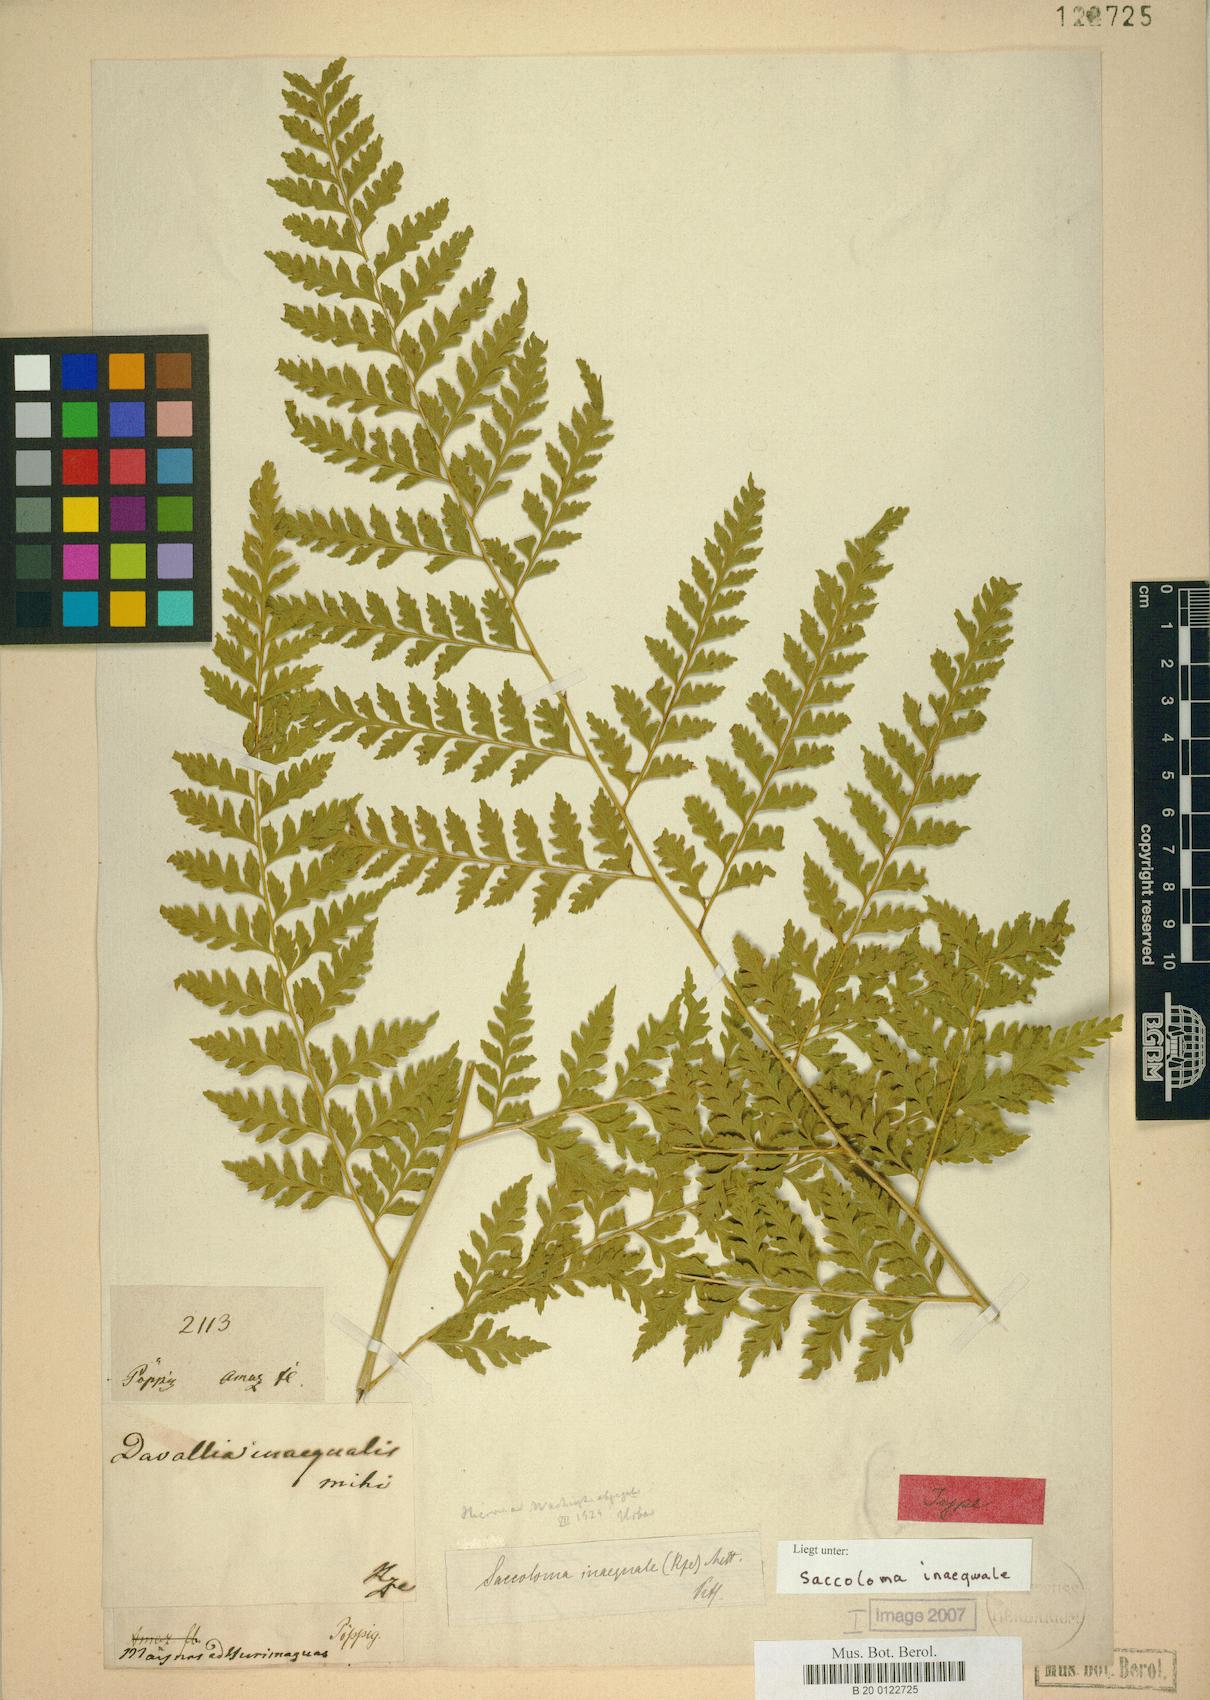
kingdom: Plantae
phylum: Tracheophyta
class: Polypodiopsida
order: Polypodiales
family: Saccolomataceae
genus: Saccoloma
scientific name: Saccoloma inaequale
